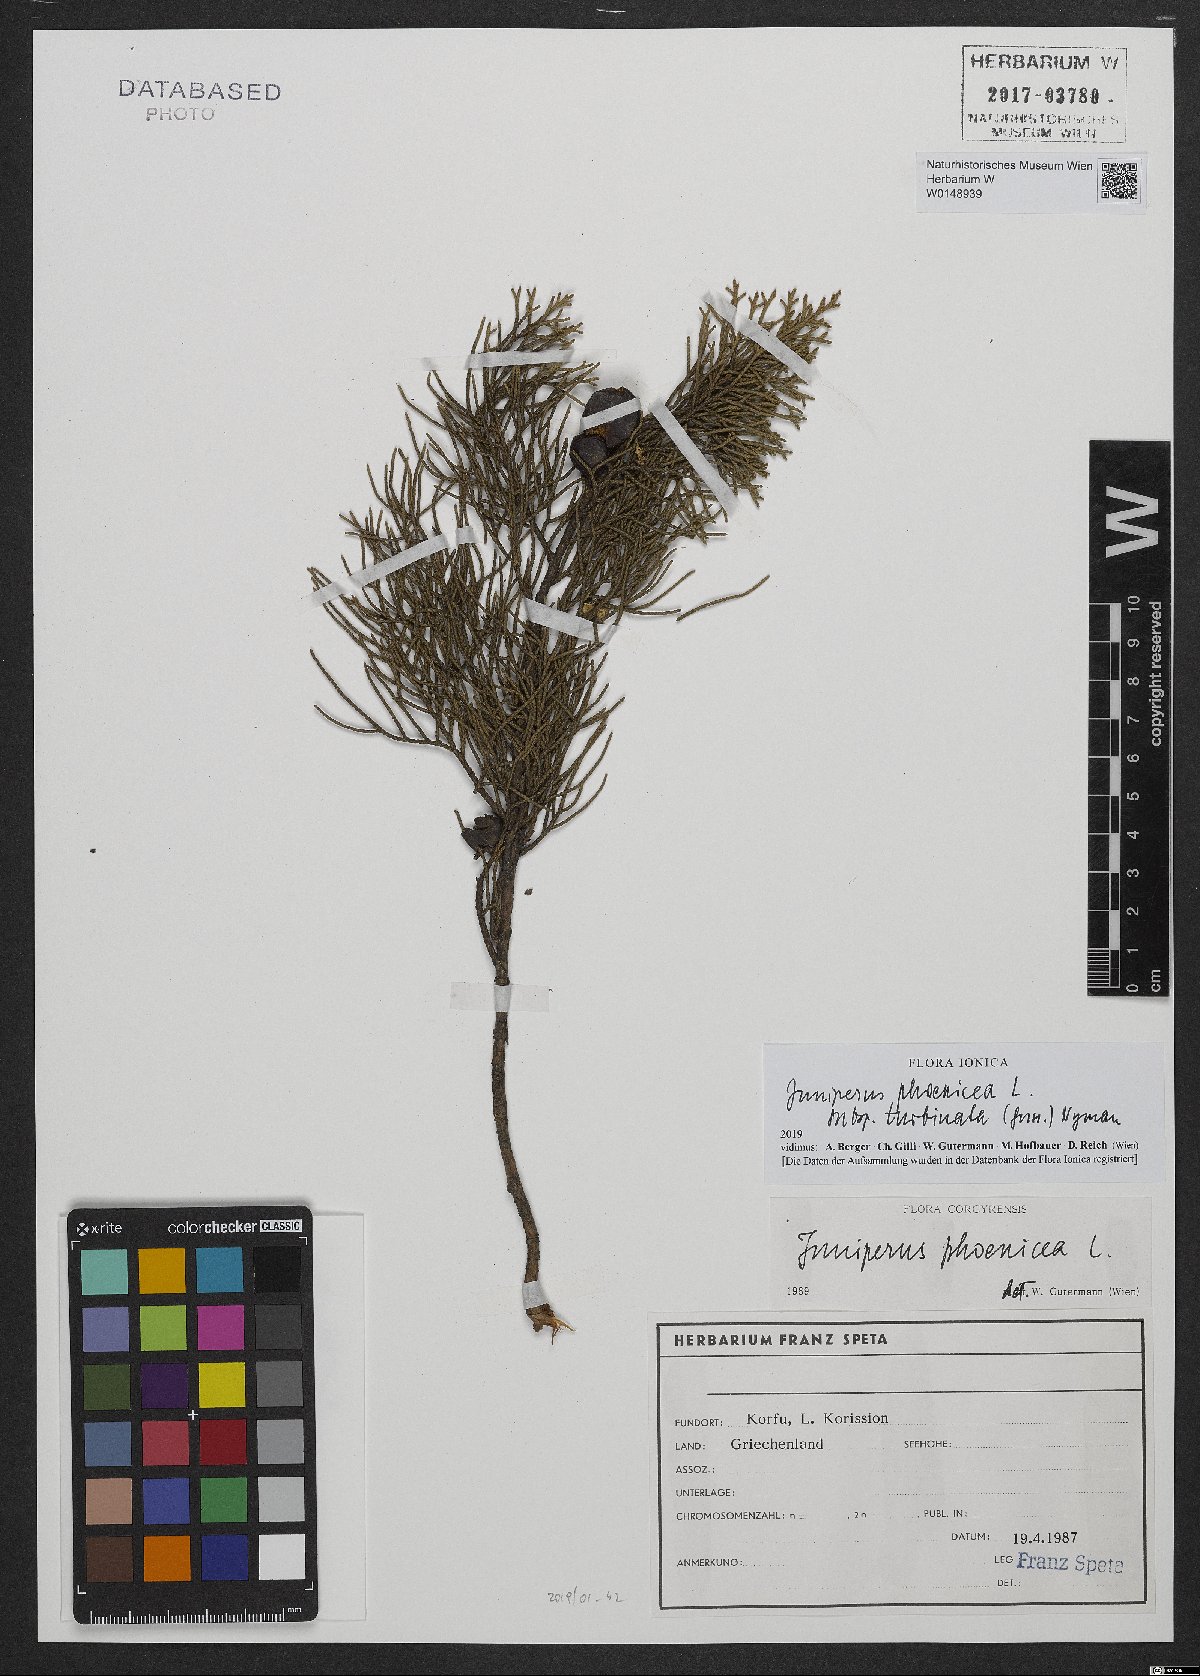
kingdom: Plantae
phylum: Tracheophyta
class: Pinopsida
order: Pinales
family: Cupressaceae
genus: Juniperus
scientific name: Juniperus phoenicea
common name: Phoenician juniper
